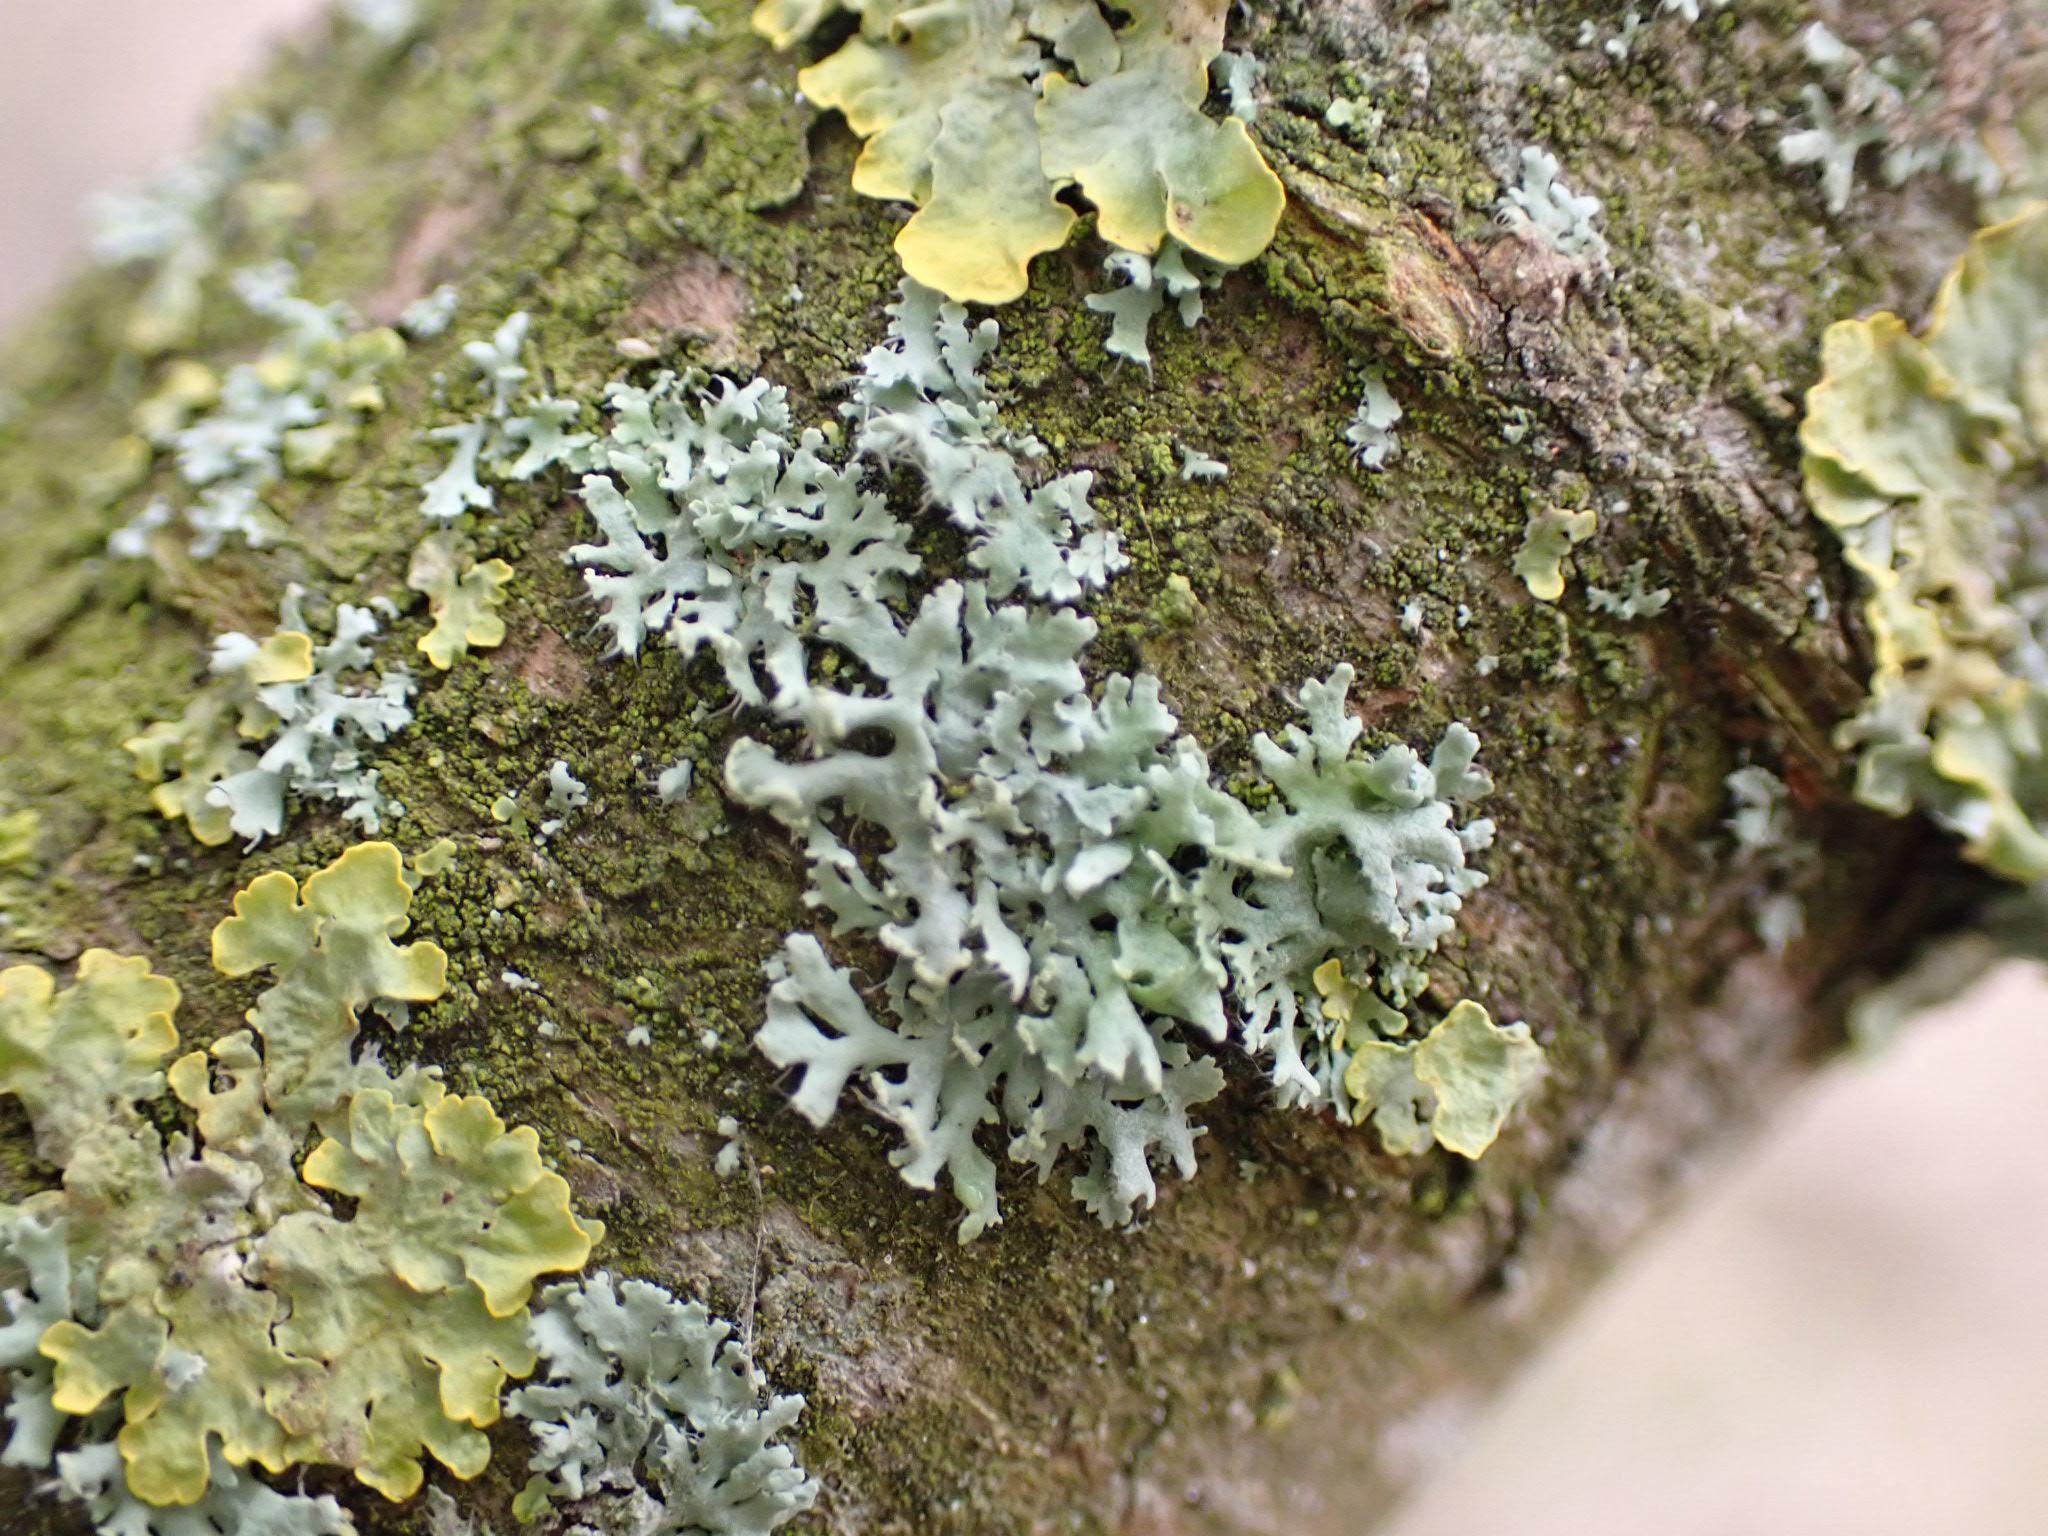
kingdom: Fungi
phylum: Ascomycota
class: Lecanoromycetes
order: Caliciales
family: Physciaceae
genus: Physcia
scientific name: Physcia tenella
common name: spæd rosetlav
